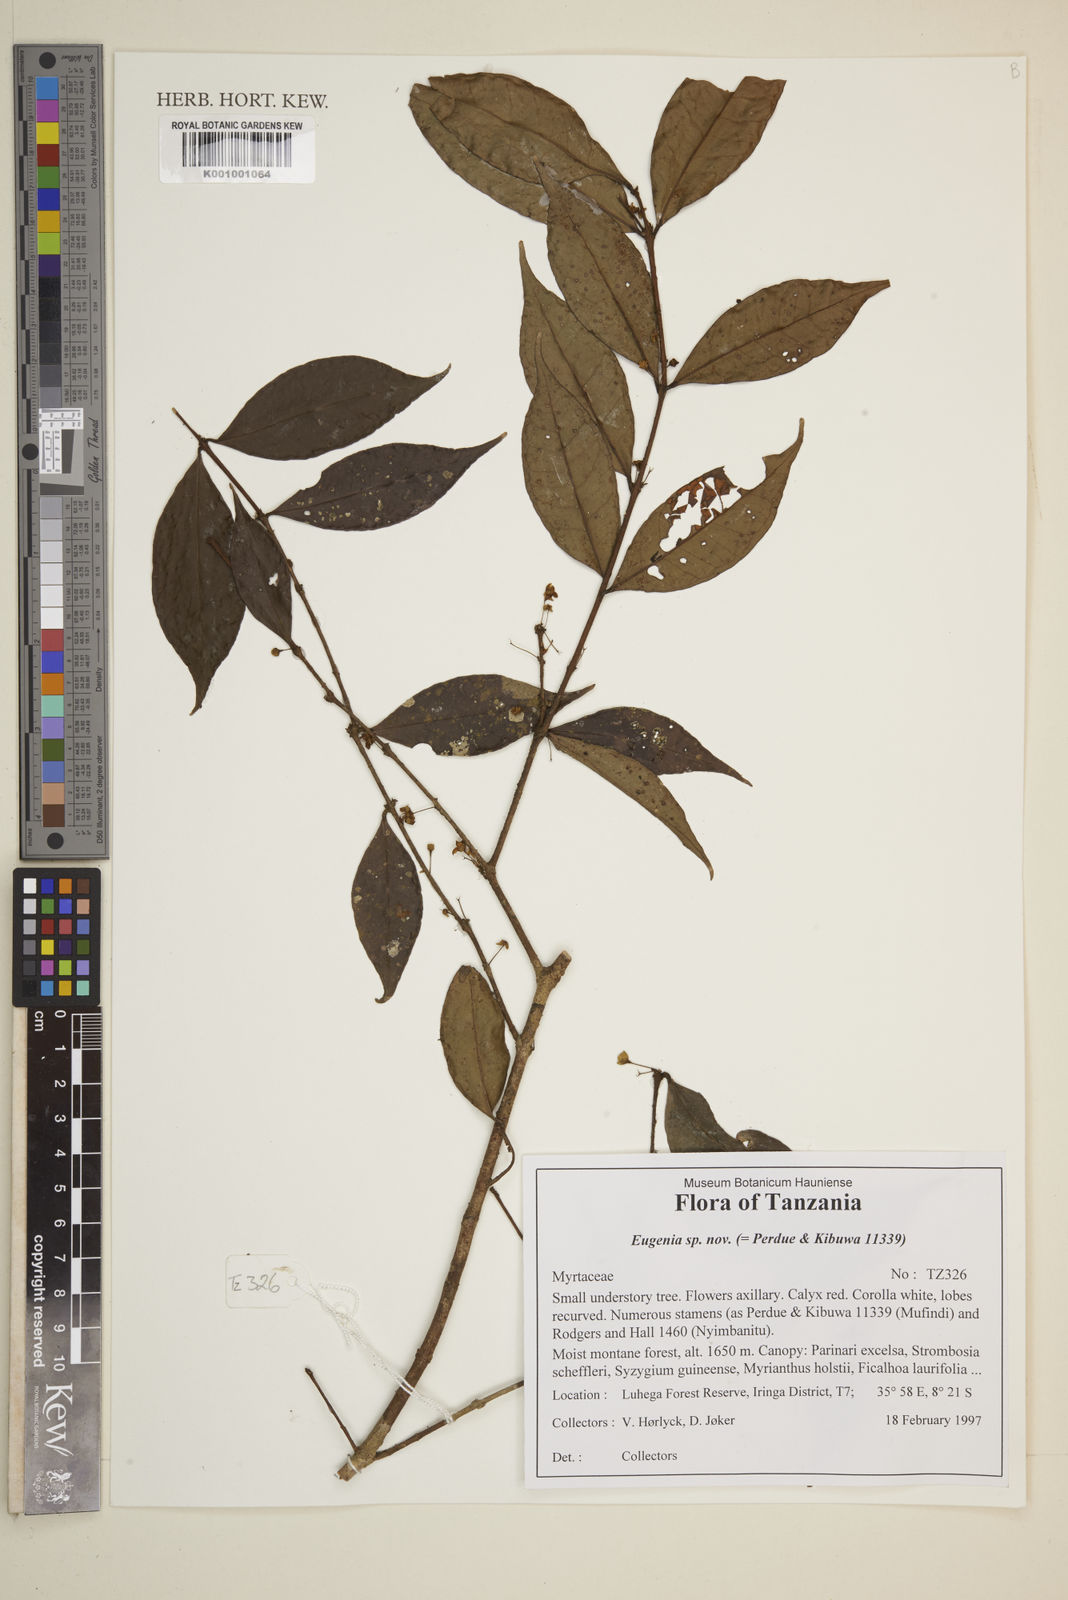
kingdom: Plantae
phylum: Tracheophyta
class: Magnoliopsida
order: Myrtales
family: Myrtaceae
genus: Eugenia
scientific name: Eugenia
